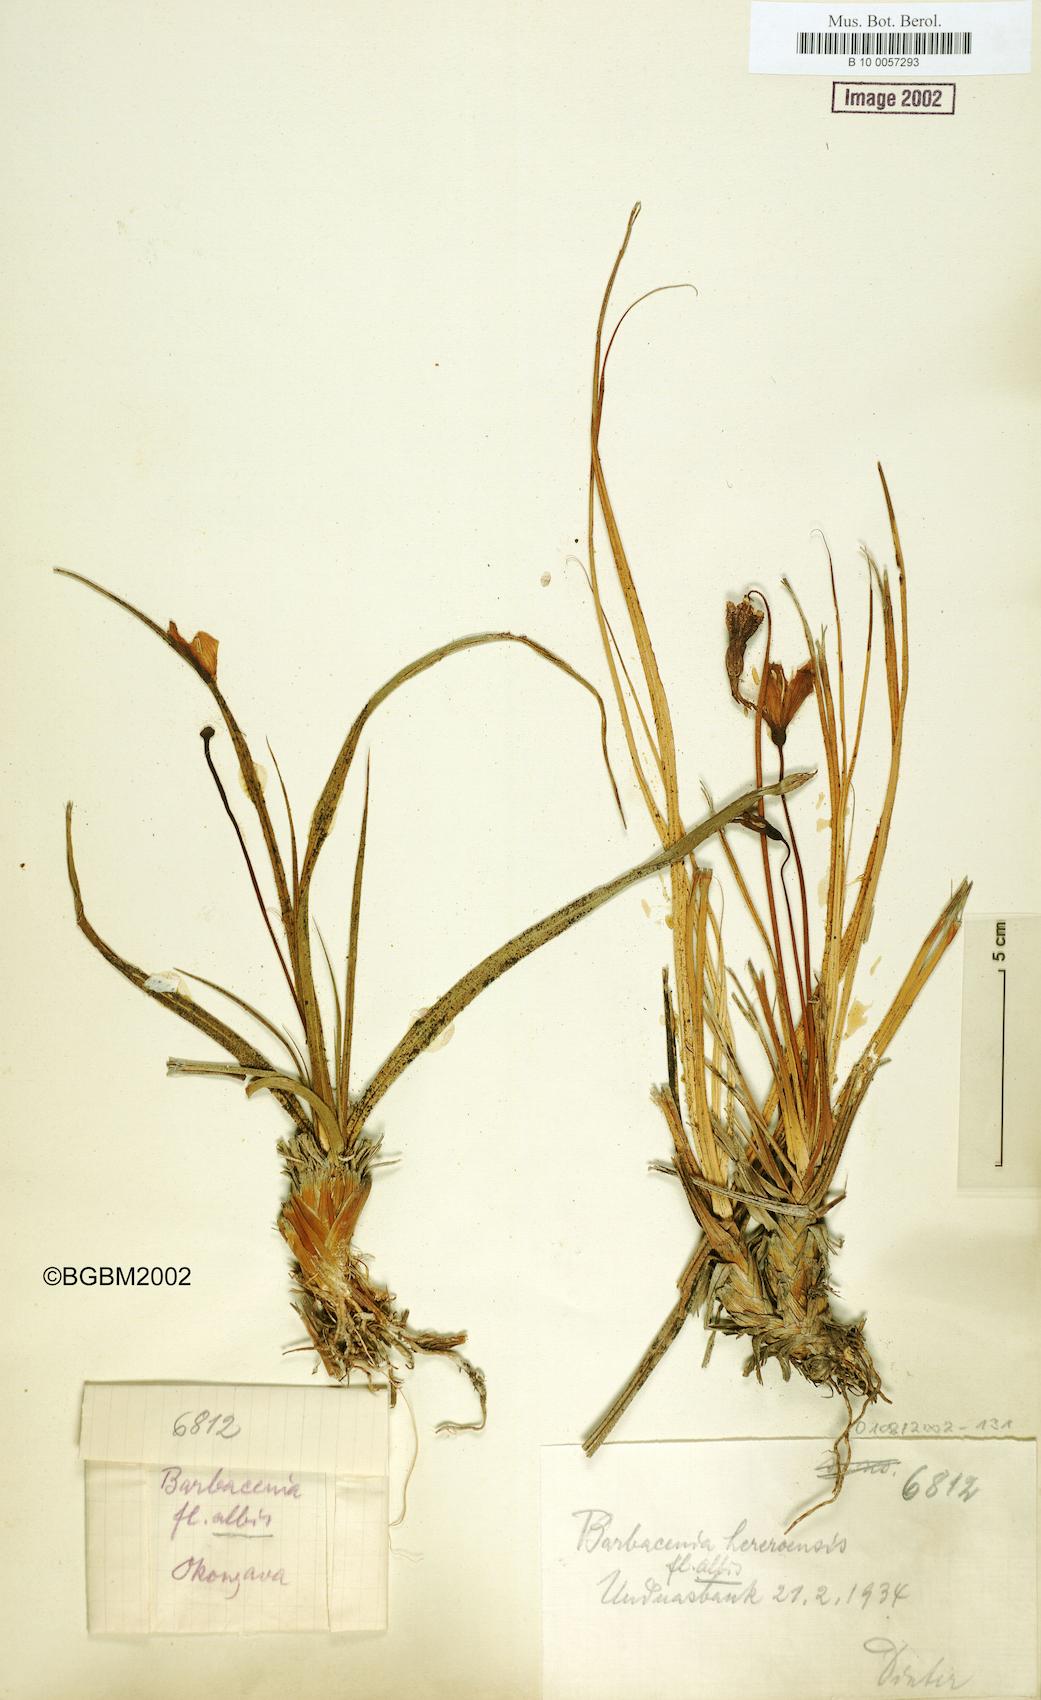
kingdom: Plantae
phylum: Tracheophyta
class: Liliopsida
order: Pandanales
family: Velloziaceae
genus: Xerophyta
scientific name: Xerophyta rosea
